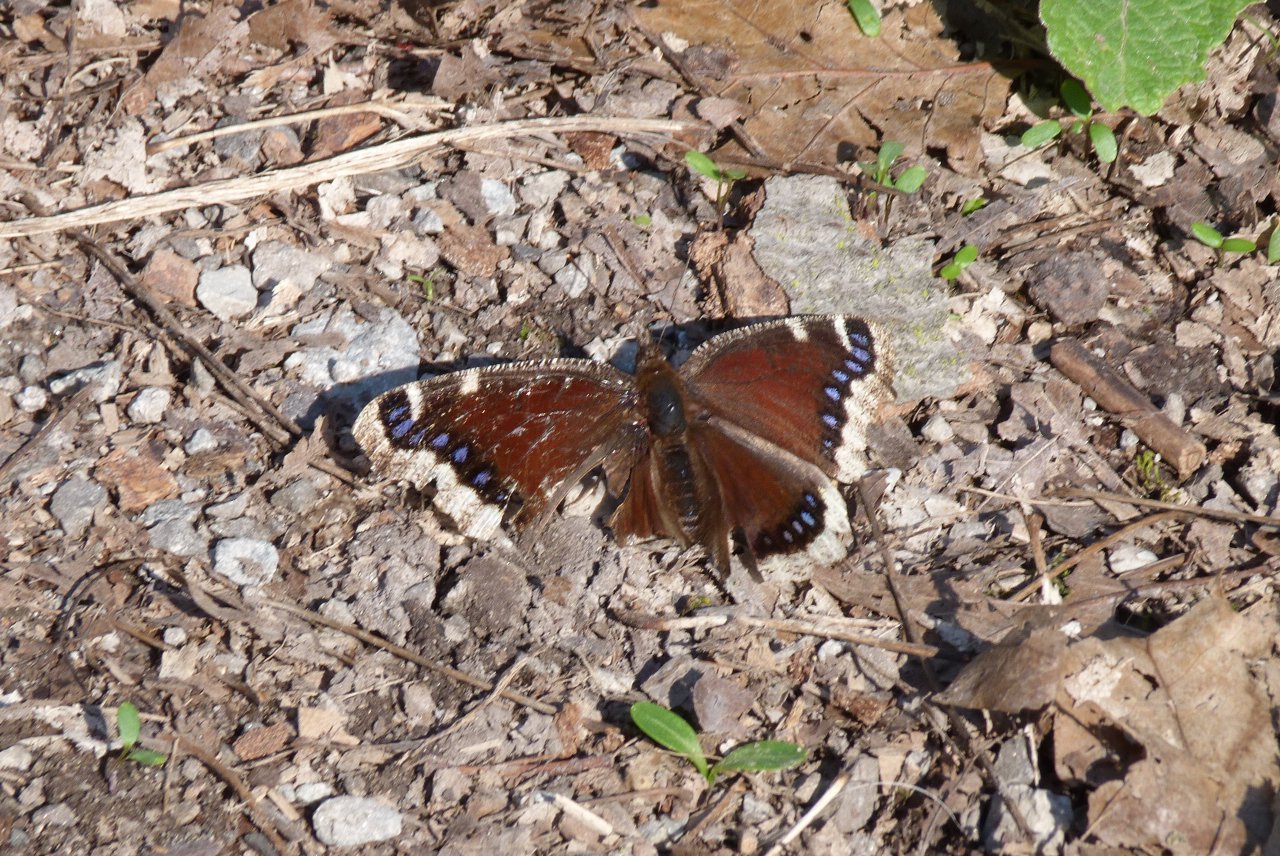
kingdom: Animalia
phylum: Arthropoda
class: Insecta
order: Lepidoptera
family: Nymphalidae
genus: Nymphalis
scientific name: Nymphalis antiopa
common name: Mourning Cloak
